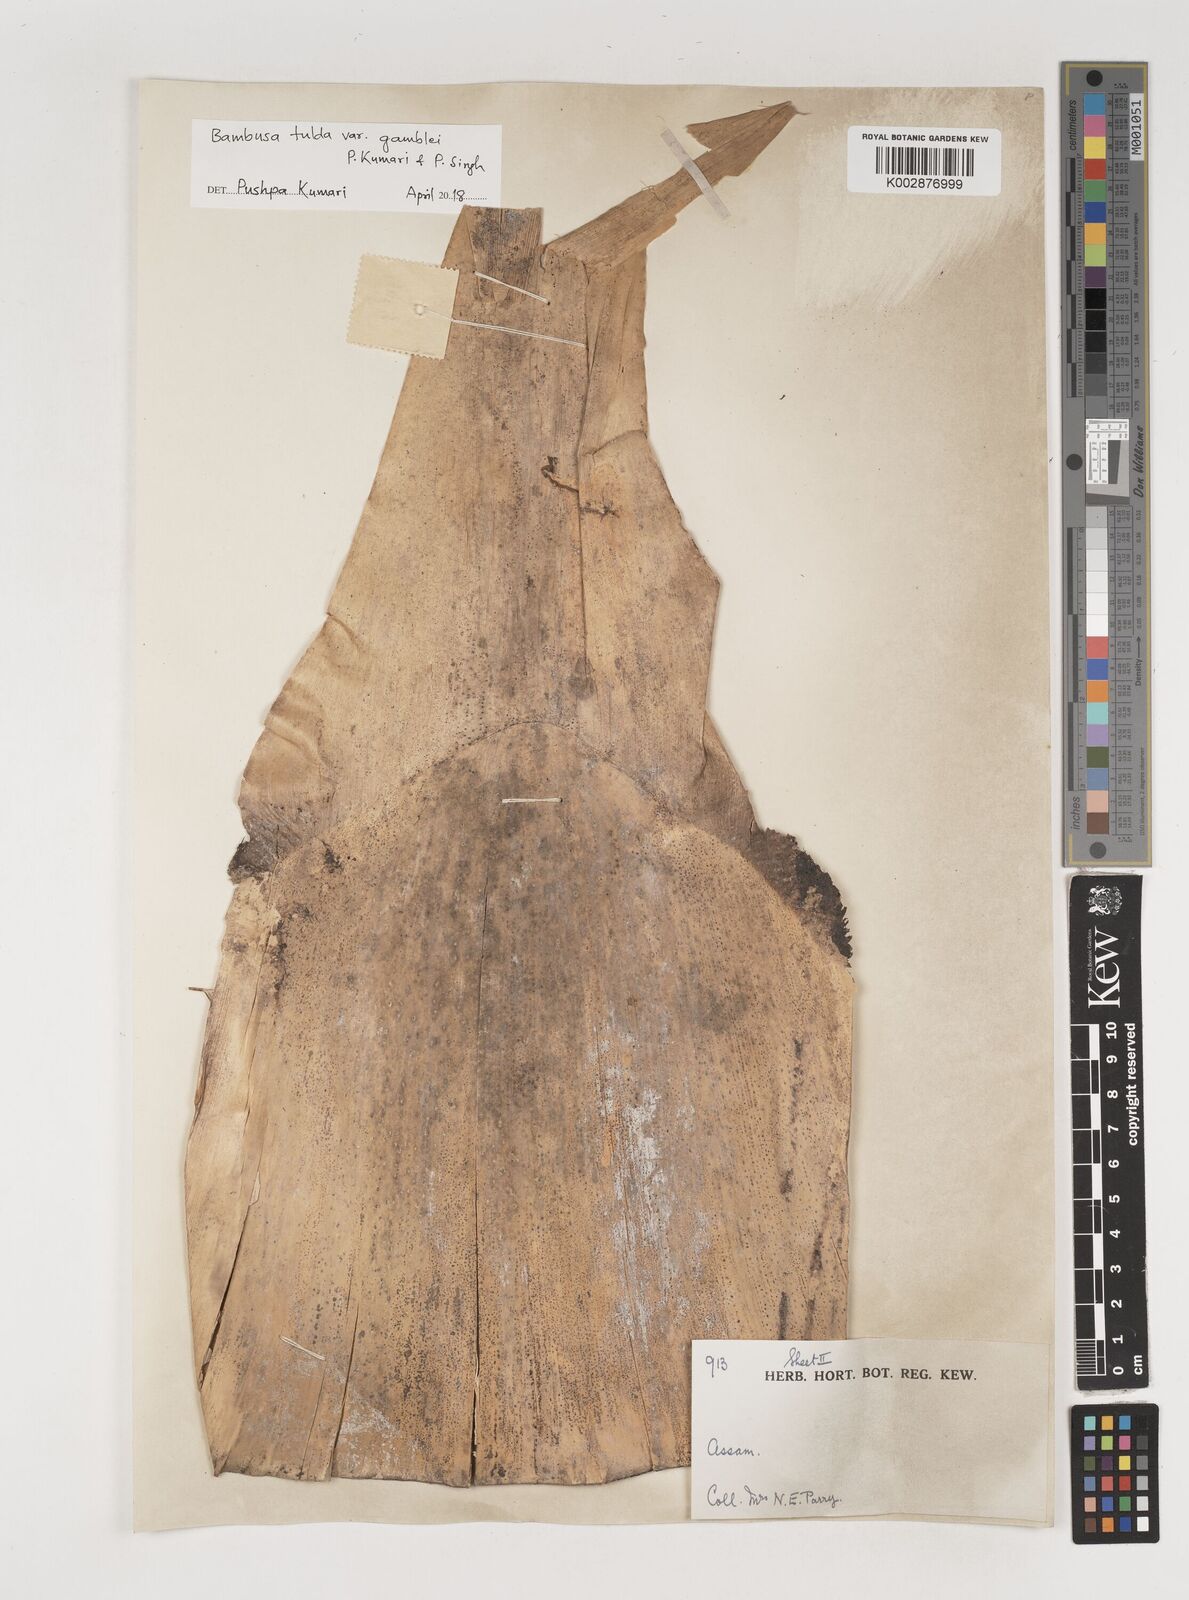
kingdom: Plantae
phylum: Tracheophyta
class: Liliopsida
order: Poales
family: Poaceae
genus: Bambusa
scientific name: Bambusa tulda
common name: Bengal bamboo
